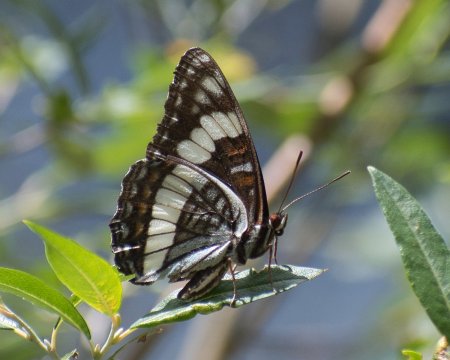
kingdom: Animalia
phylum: Arthropoda
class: Insecta
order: Lepidoptera
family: Nymphalidae
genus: Limenitis
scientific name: Limenitis weidemeyerii
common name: Weidemeyer's Admiral
